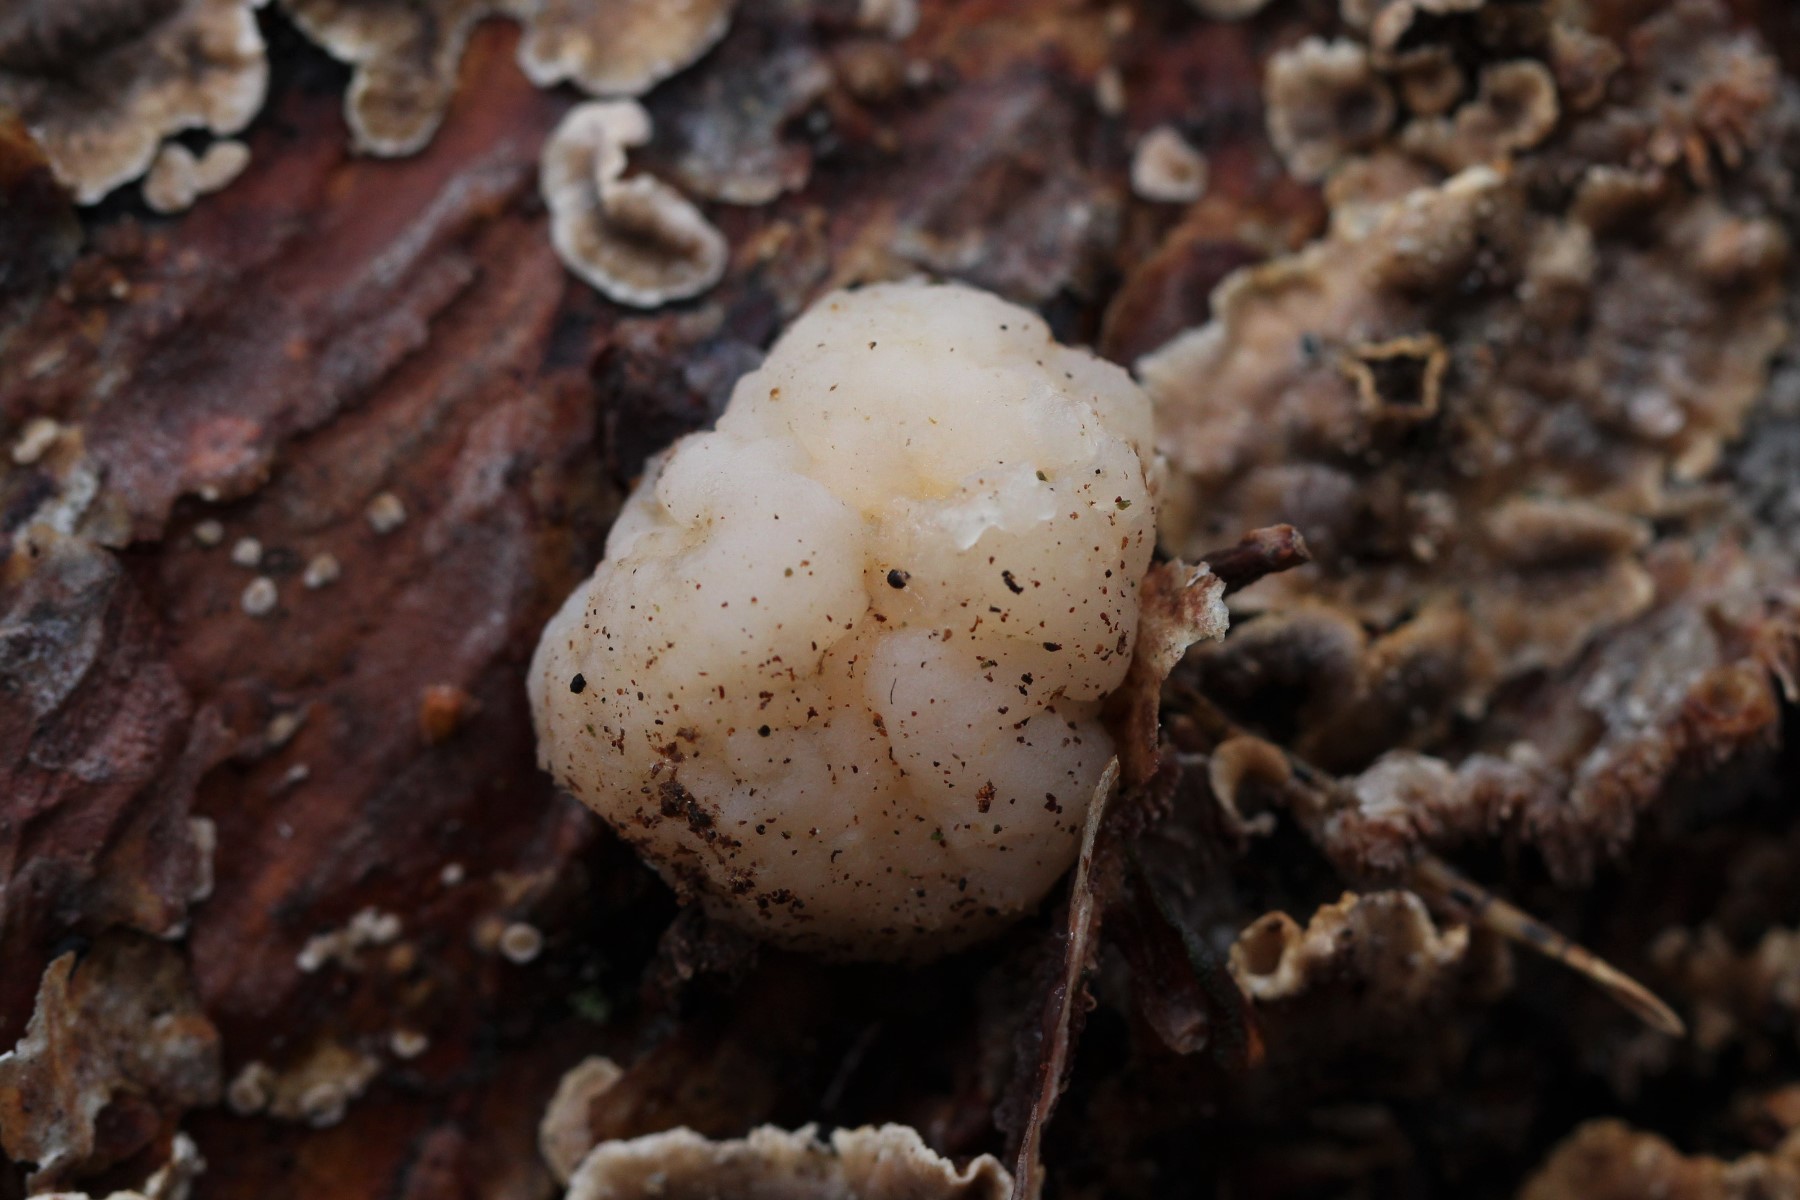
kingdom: Fungi
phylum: Basidiomycota
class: Tremellomycetes
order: Tremellales
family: Naemateliaceae
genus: Naematelia
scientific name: Naematelia encephala
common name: fyrre-bævresvamp
